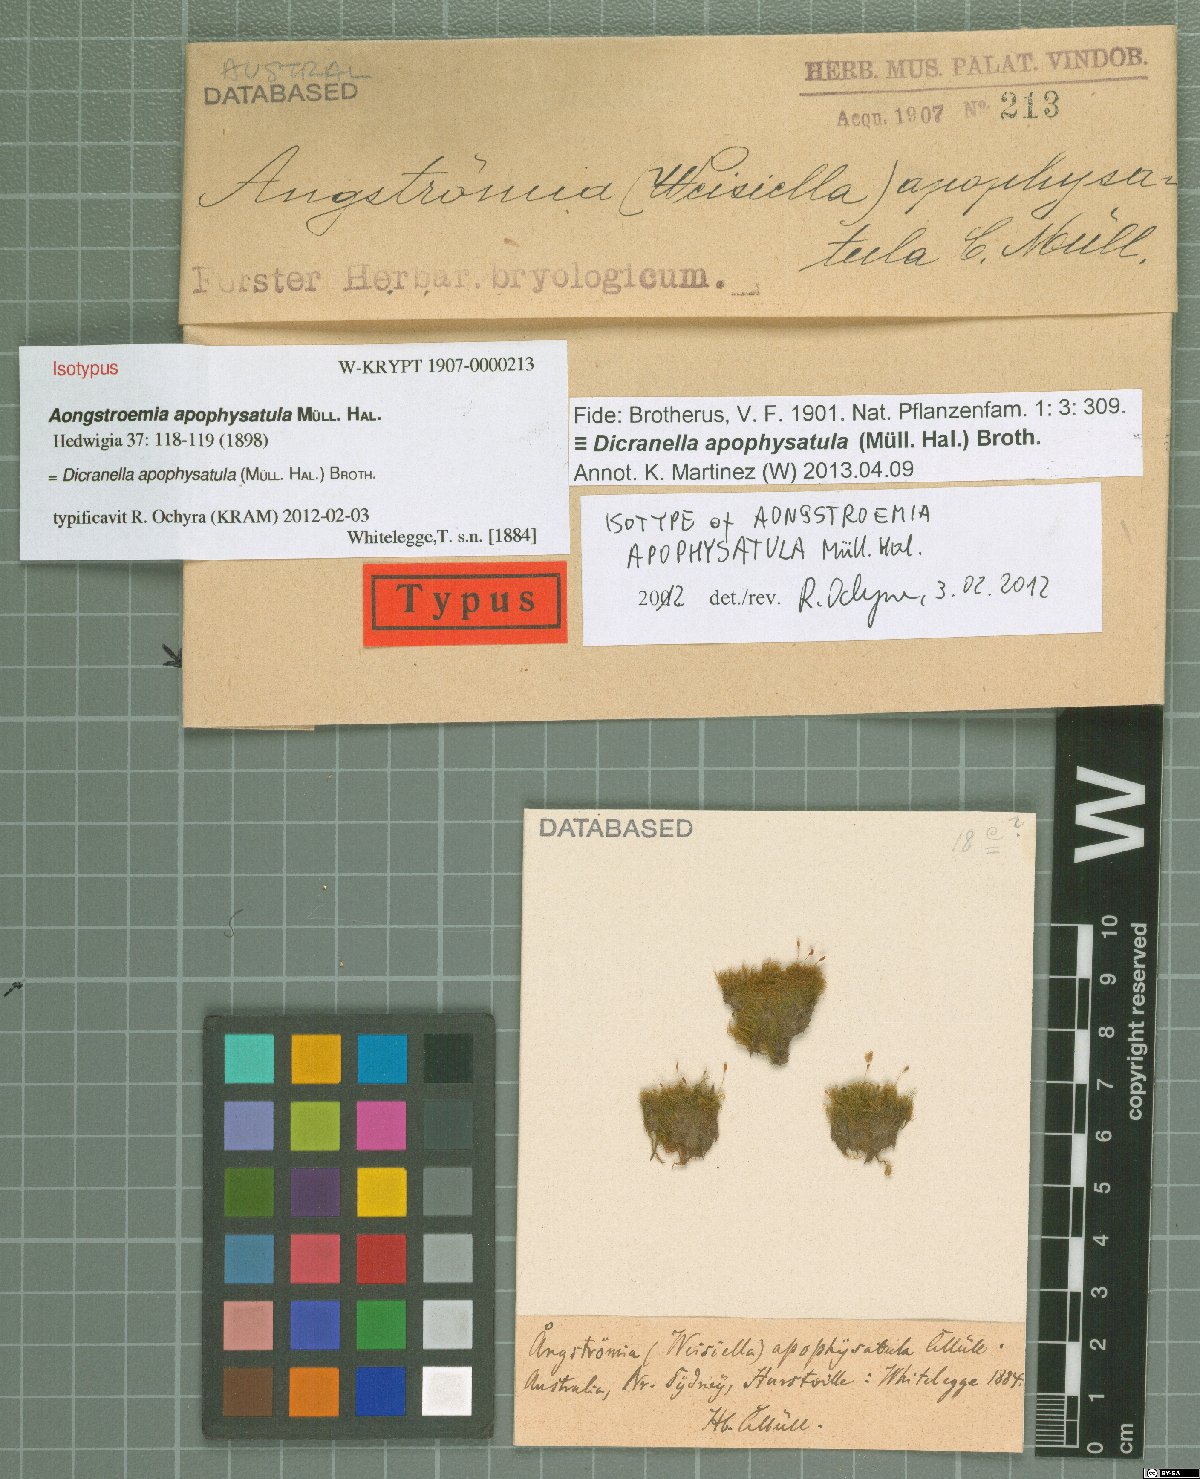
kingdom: Plantae
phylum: Bryophyta
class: Bryopsida
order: Dicranales
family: Dicranellaceae
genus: Dicranella
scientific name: Dicranella apophysatula
